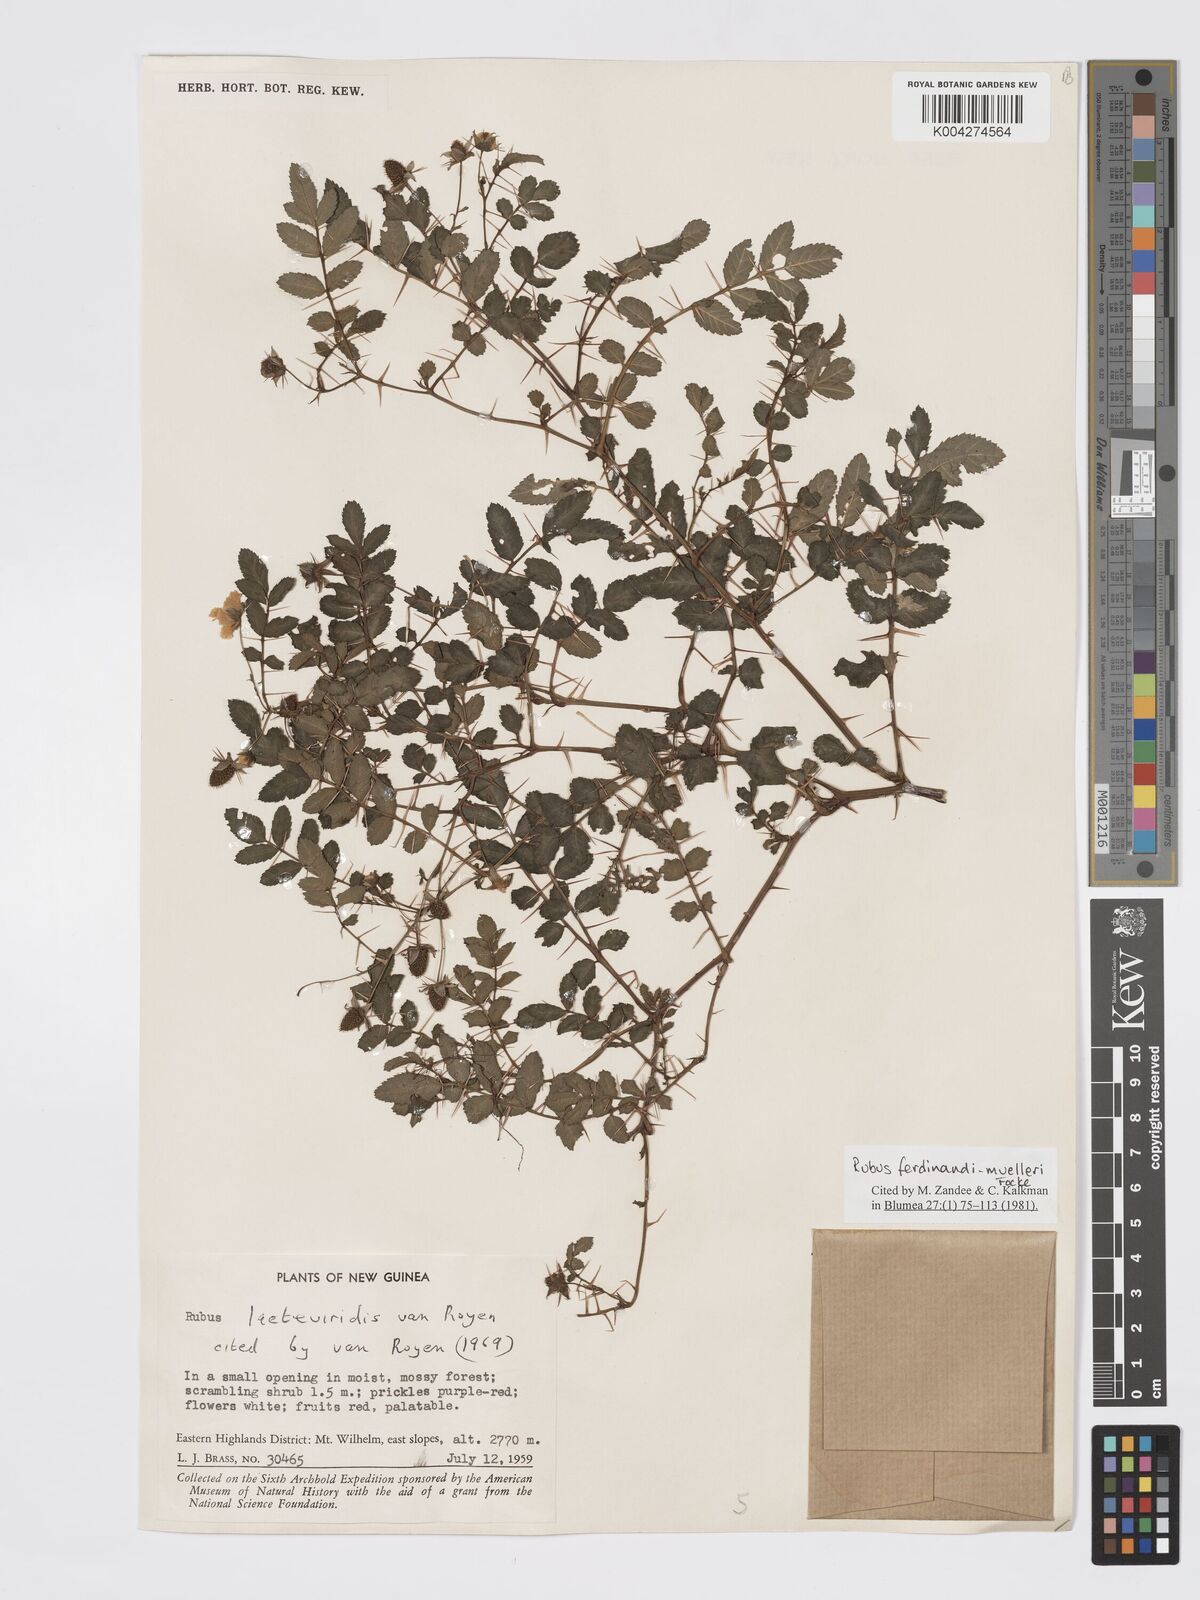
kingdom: Plantae
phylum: Tracheophyta
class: Magnoliopsida
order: Rosales
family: Rosaceae
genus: Rubus
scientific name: Rubus ferdinandimuelleri
